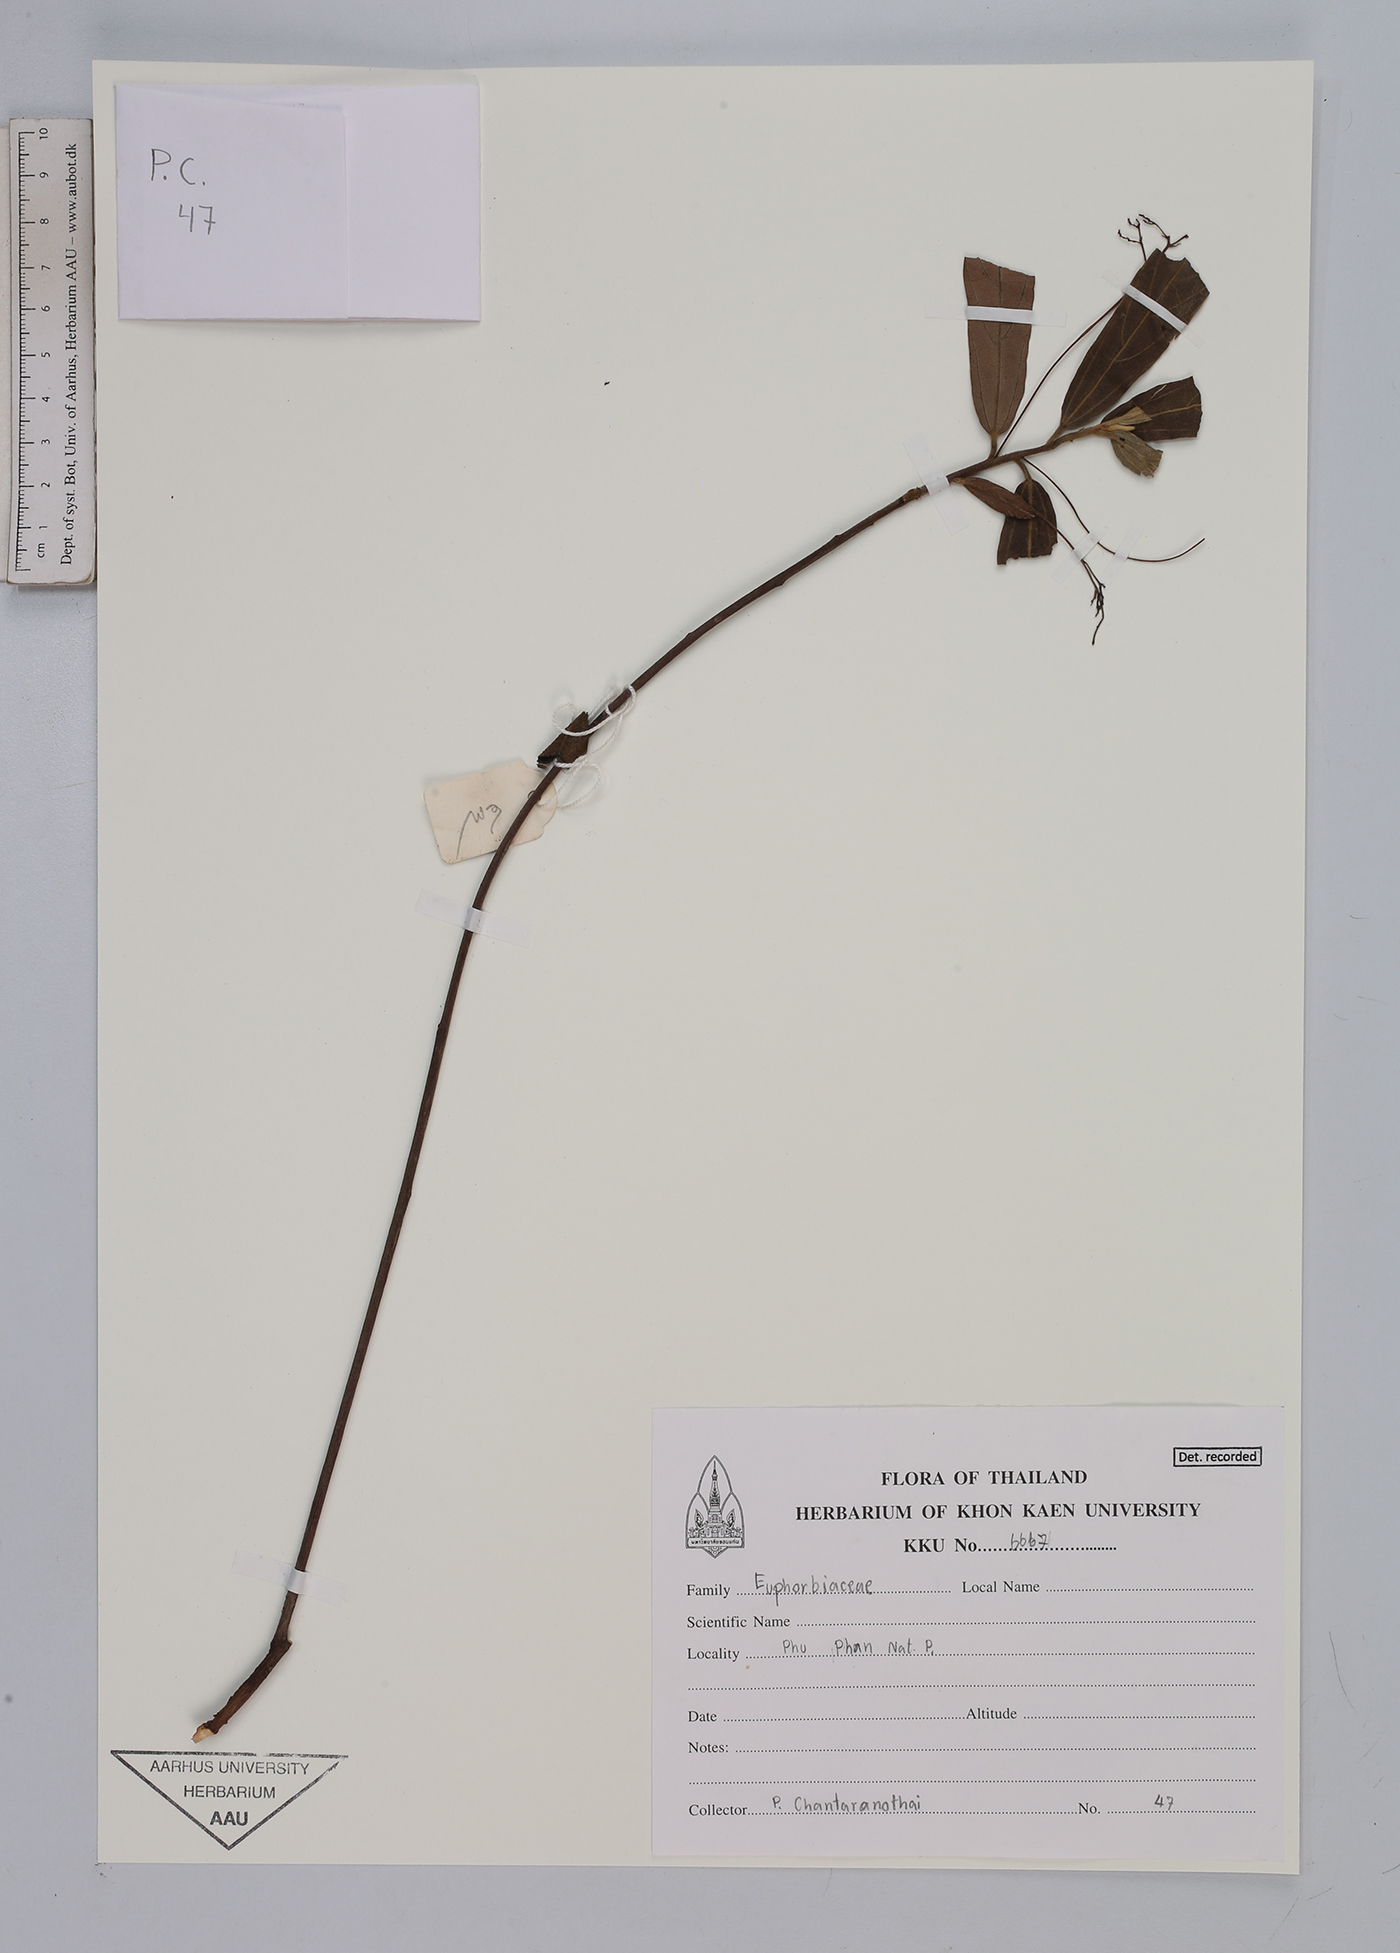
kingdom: Plantae
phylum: Tracheophyta
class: Magnoliopsida
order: Malpighiales
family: Euphorbiaceae
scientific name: Euphorbiaceae
